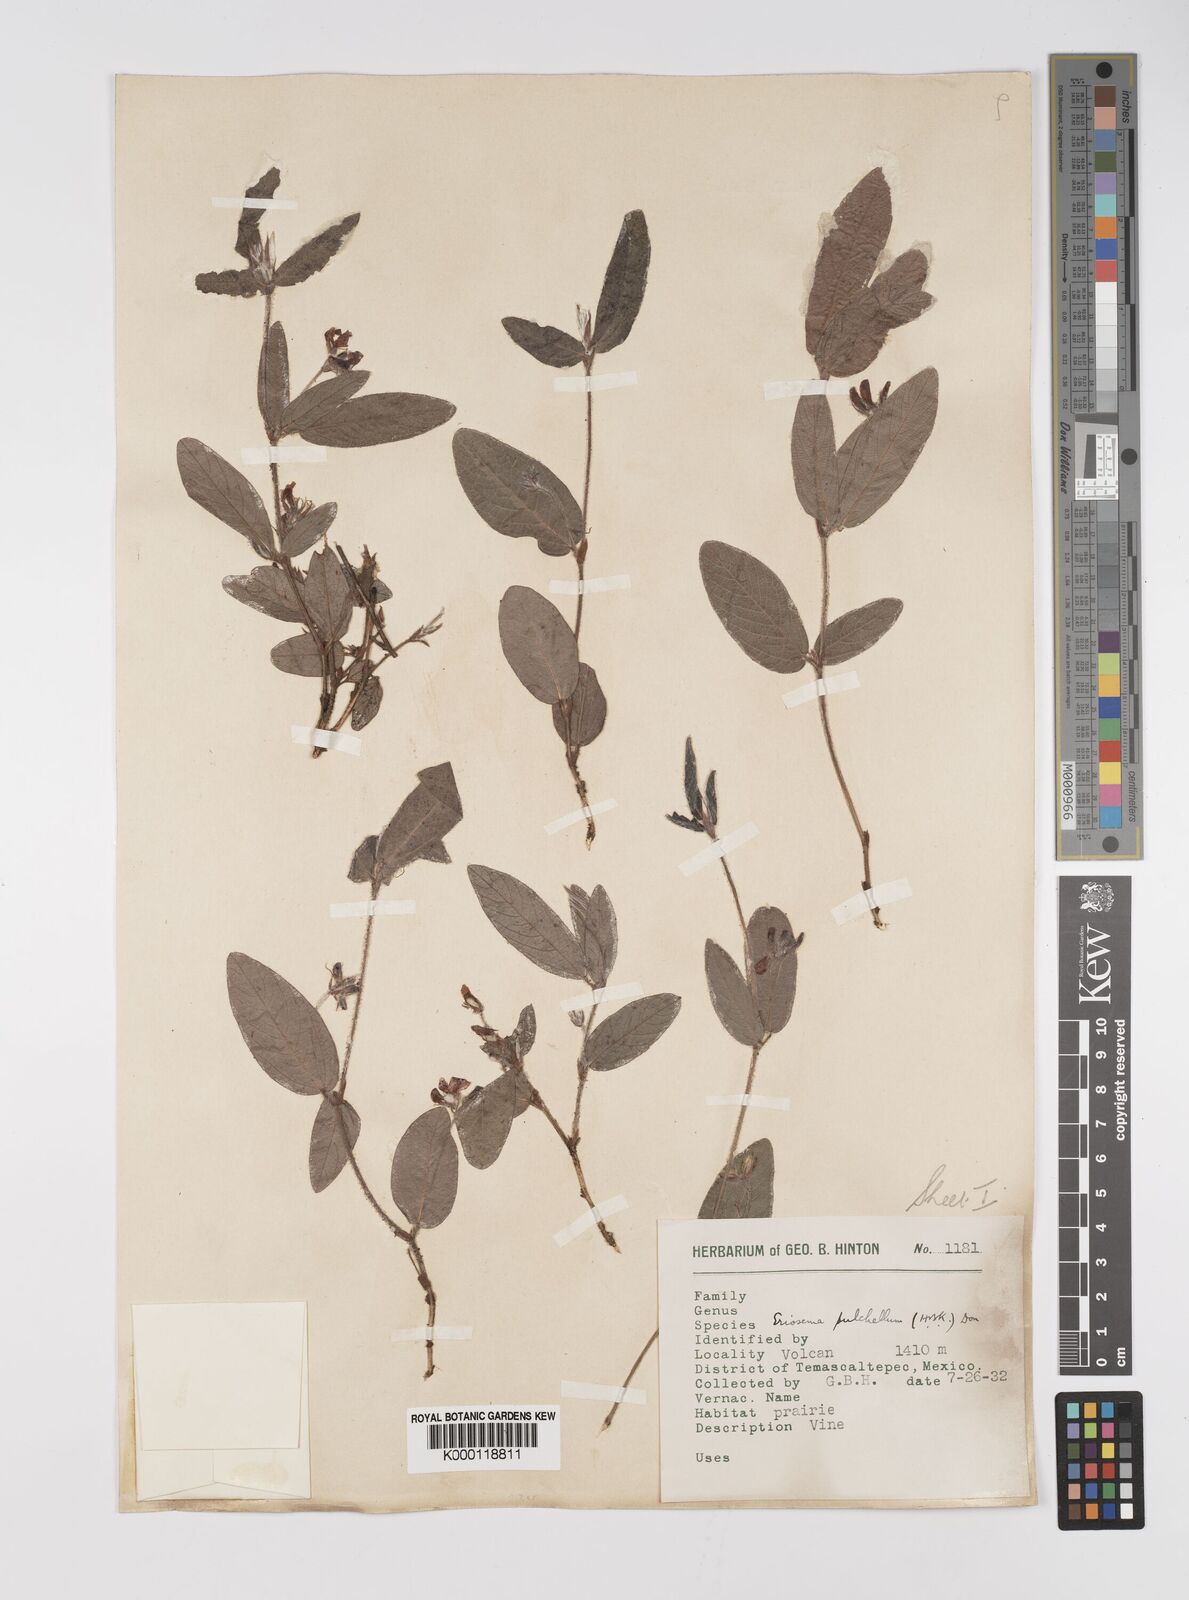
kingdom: Plantae
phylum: Tracheophyta
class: Magnoliopsida
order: Fabales
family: Fabaceae
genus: Eriosema
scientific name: Eriosema pulchellum
